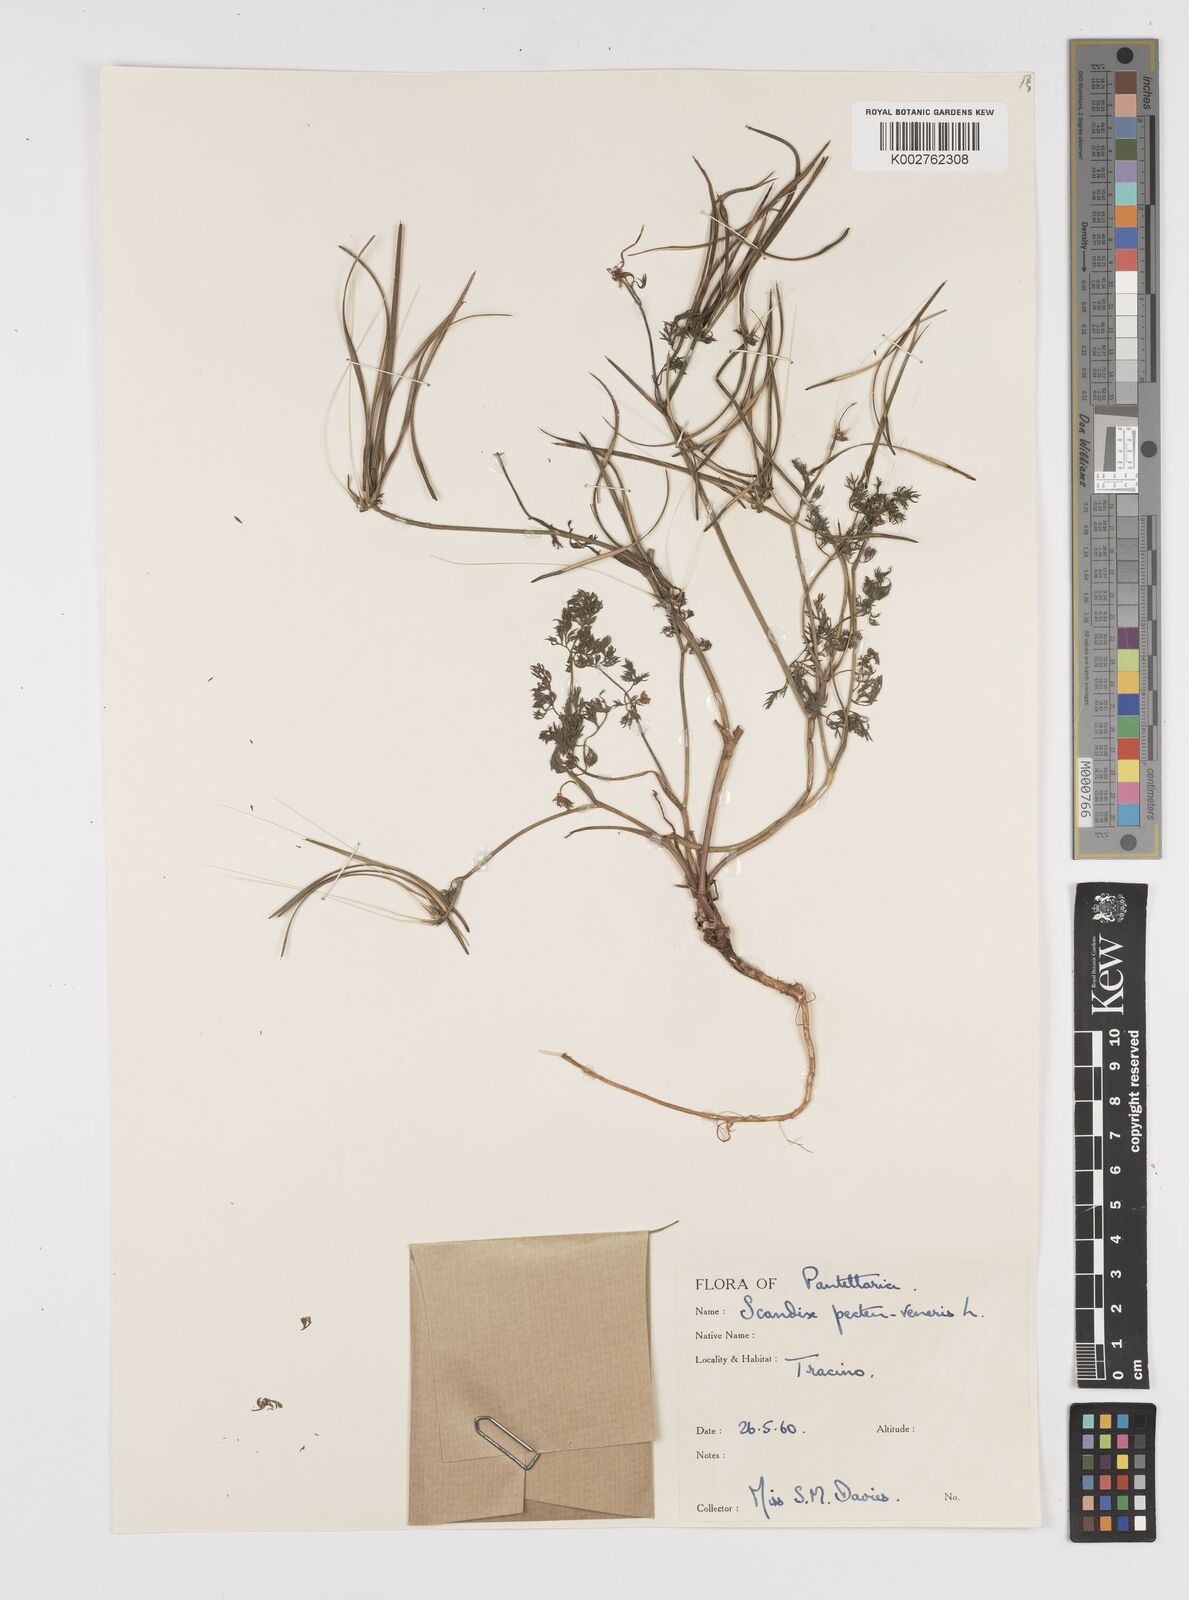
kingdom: Plantae
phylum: Tracheophyta
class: Magnoliopsida
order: Apiales
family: Apiaceae
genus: Scandix
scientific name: Scandix pecten-veneris
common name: Shepherd's-needle
